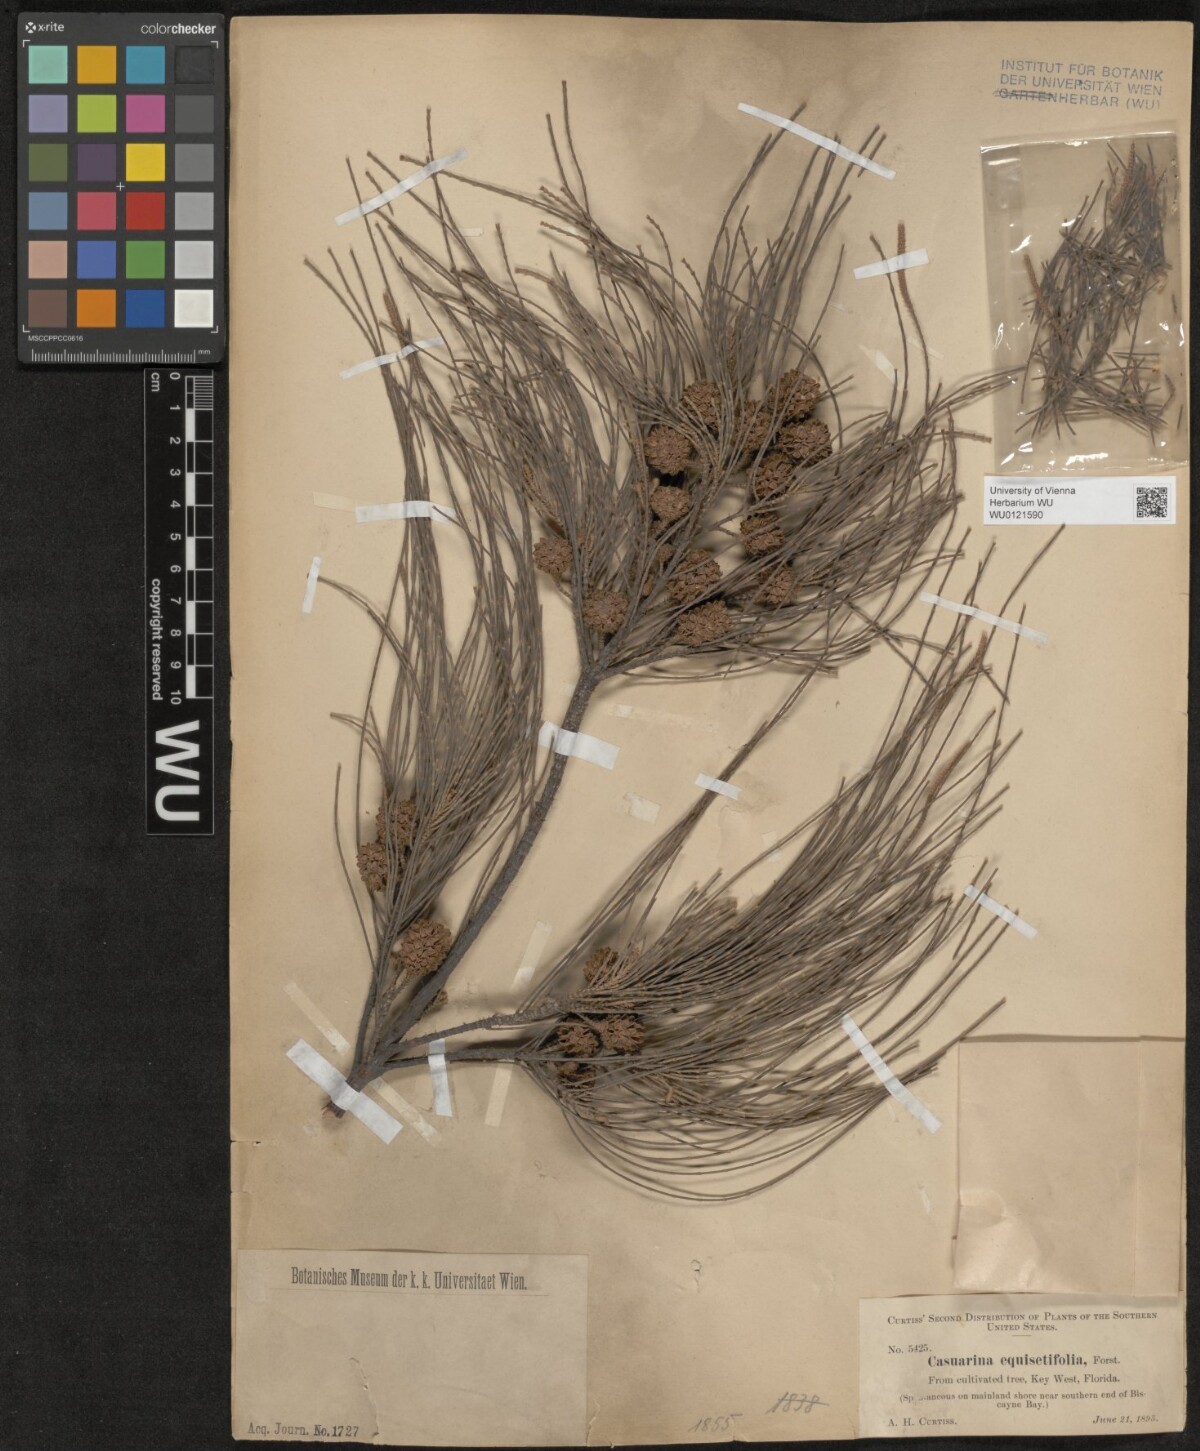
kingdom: Plantae
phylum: Tracheophyta
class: Magnoliopsida
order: Fagales
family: Casuarinaceae
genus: Casuarina
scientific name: Casuarina equisetifolia
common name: Beach sheoak
